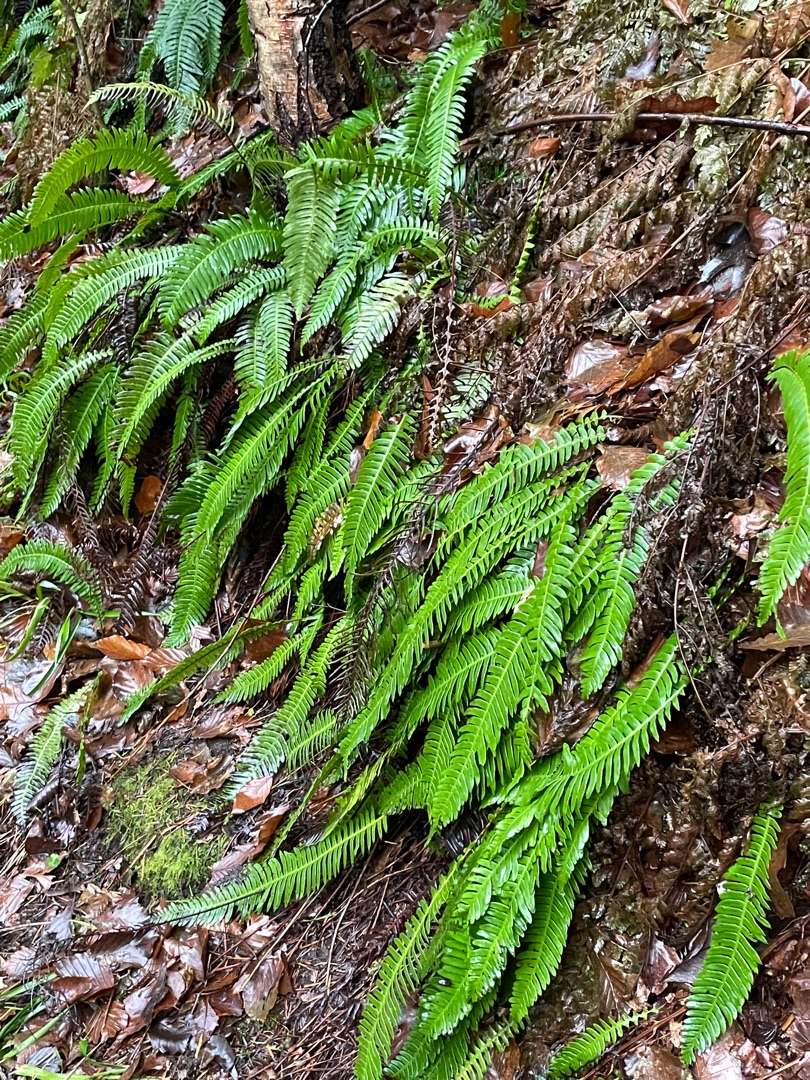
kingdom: Plantae
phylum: Tracheophyta
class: Polypodiopsida
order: Polypodiales
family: Blechnaceae
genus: Struthiopteris
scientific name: Struthiopteris spicant
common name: Kambregne
